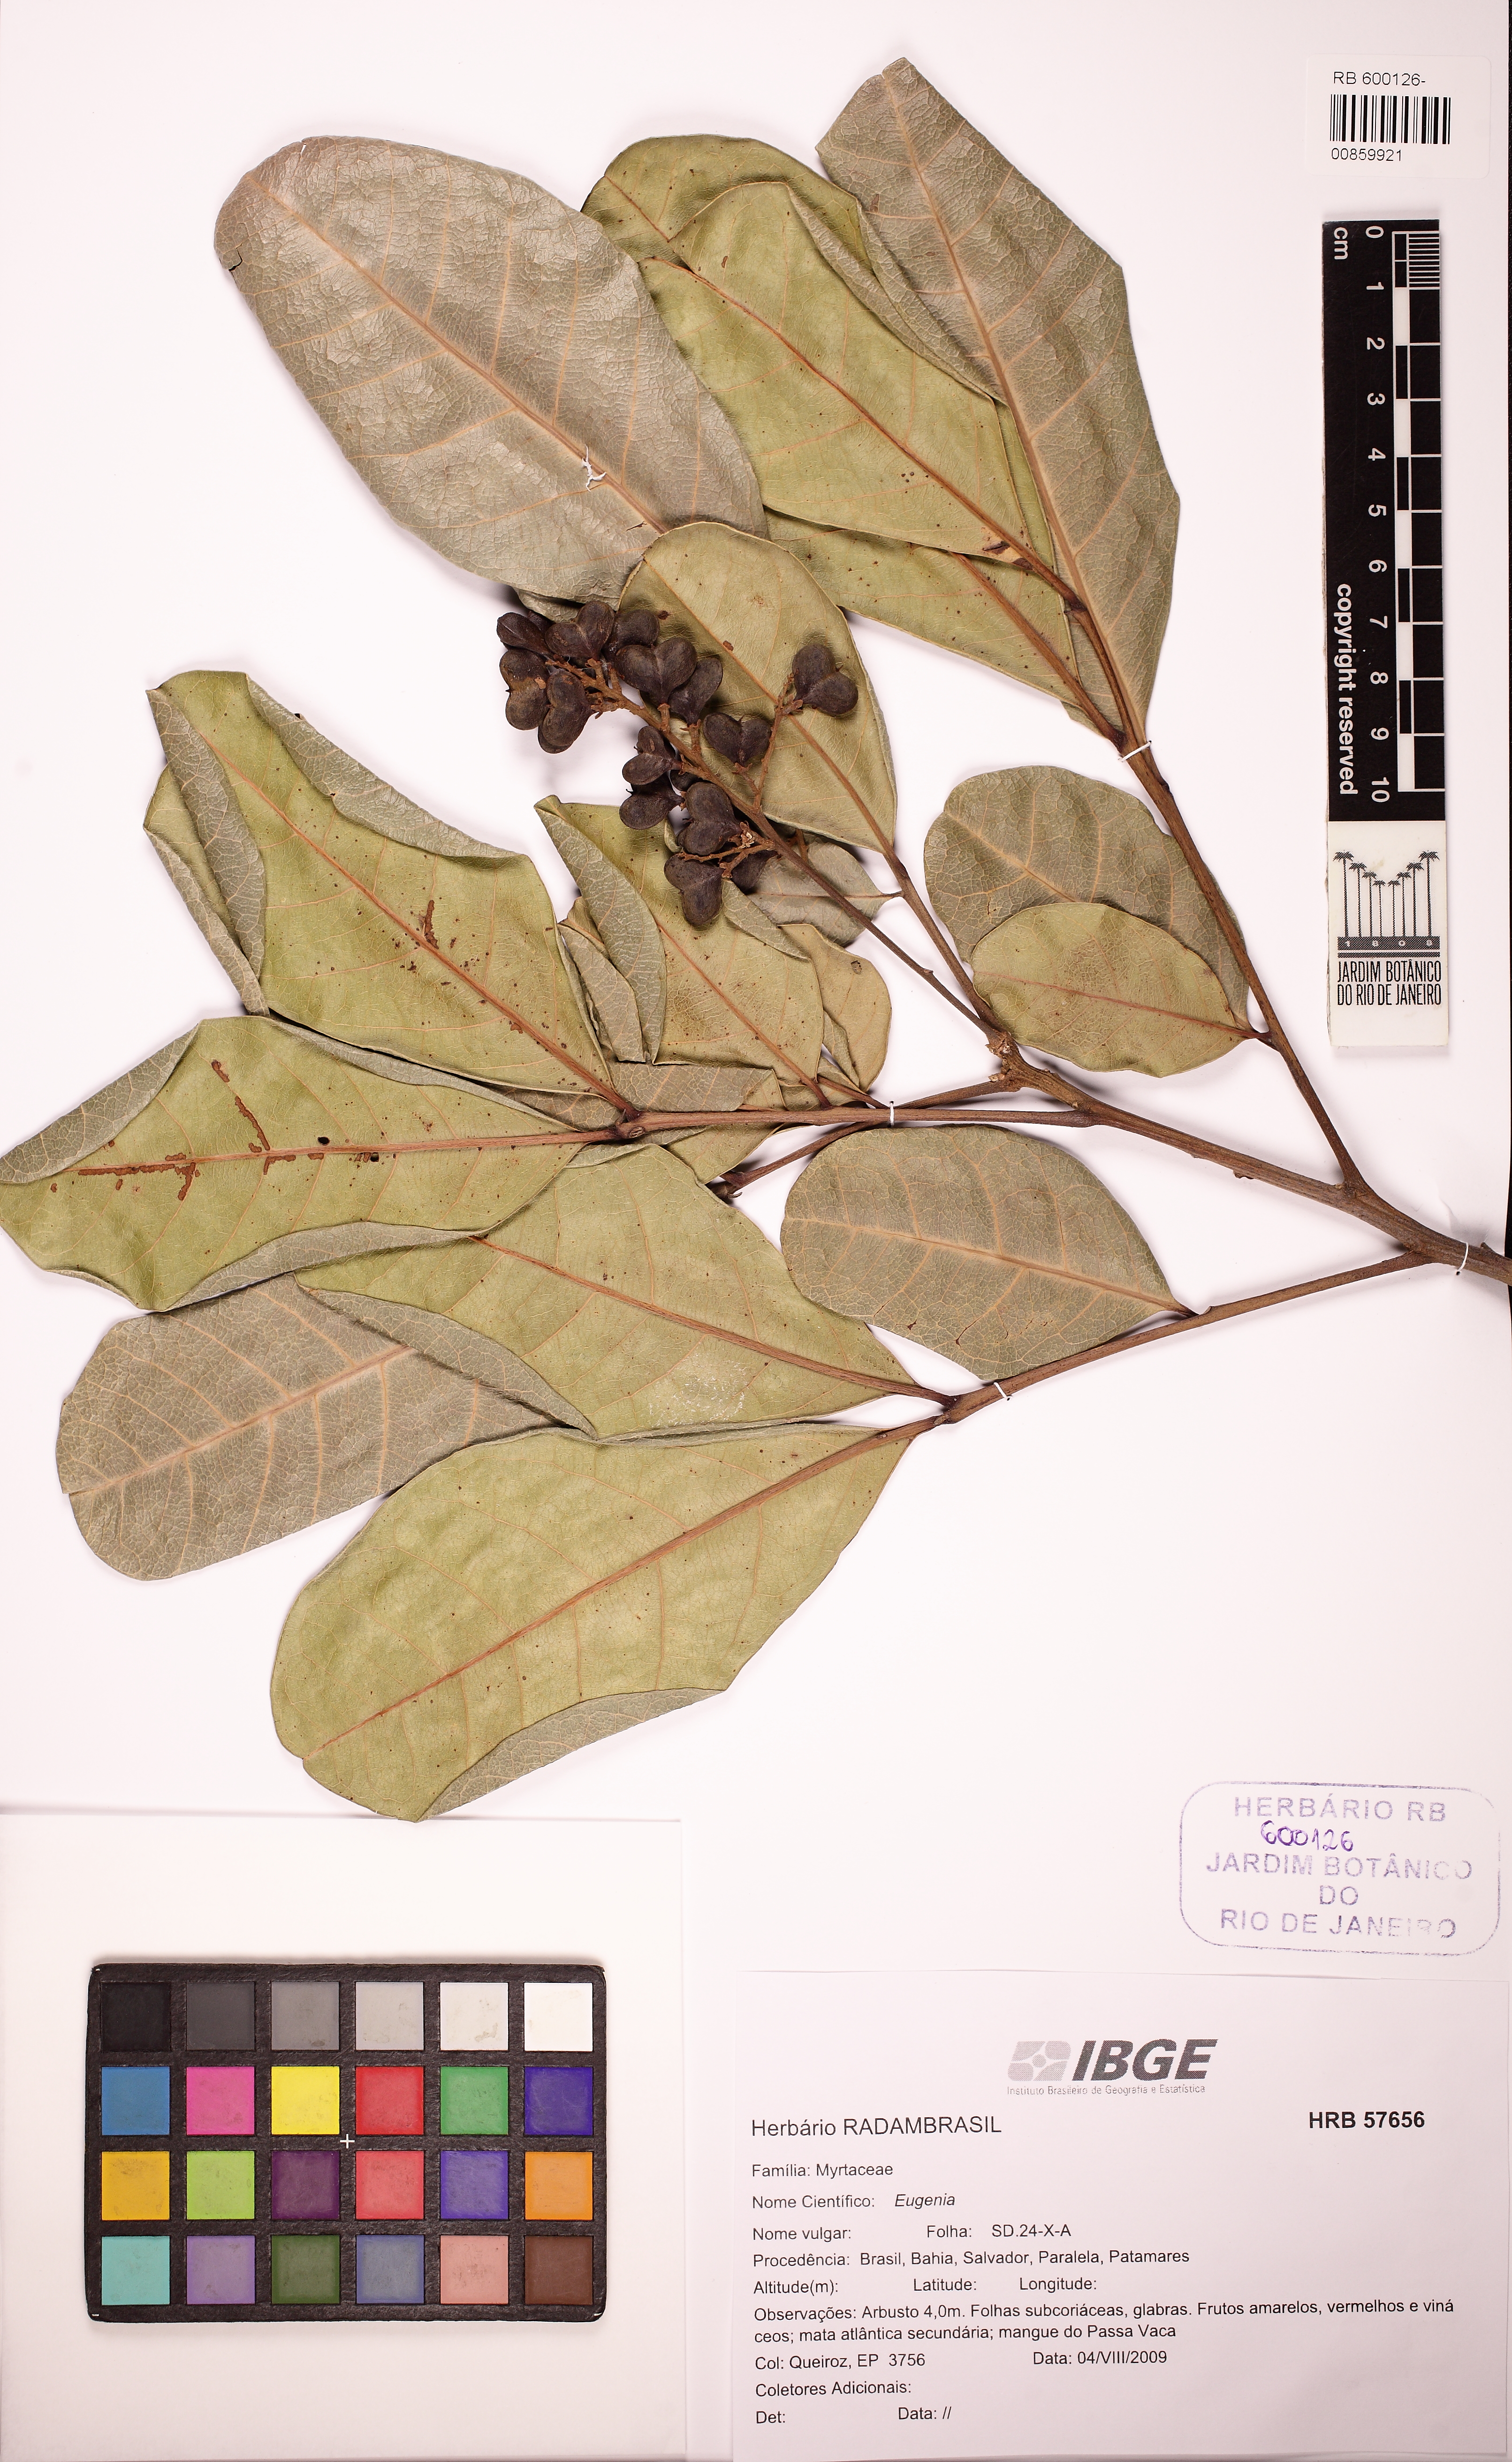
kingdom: Plantae
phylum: Tracheophyta
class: Magnoliopsida
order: Sapindales
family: Sapindaceae
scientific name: Sapindaceae
